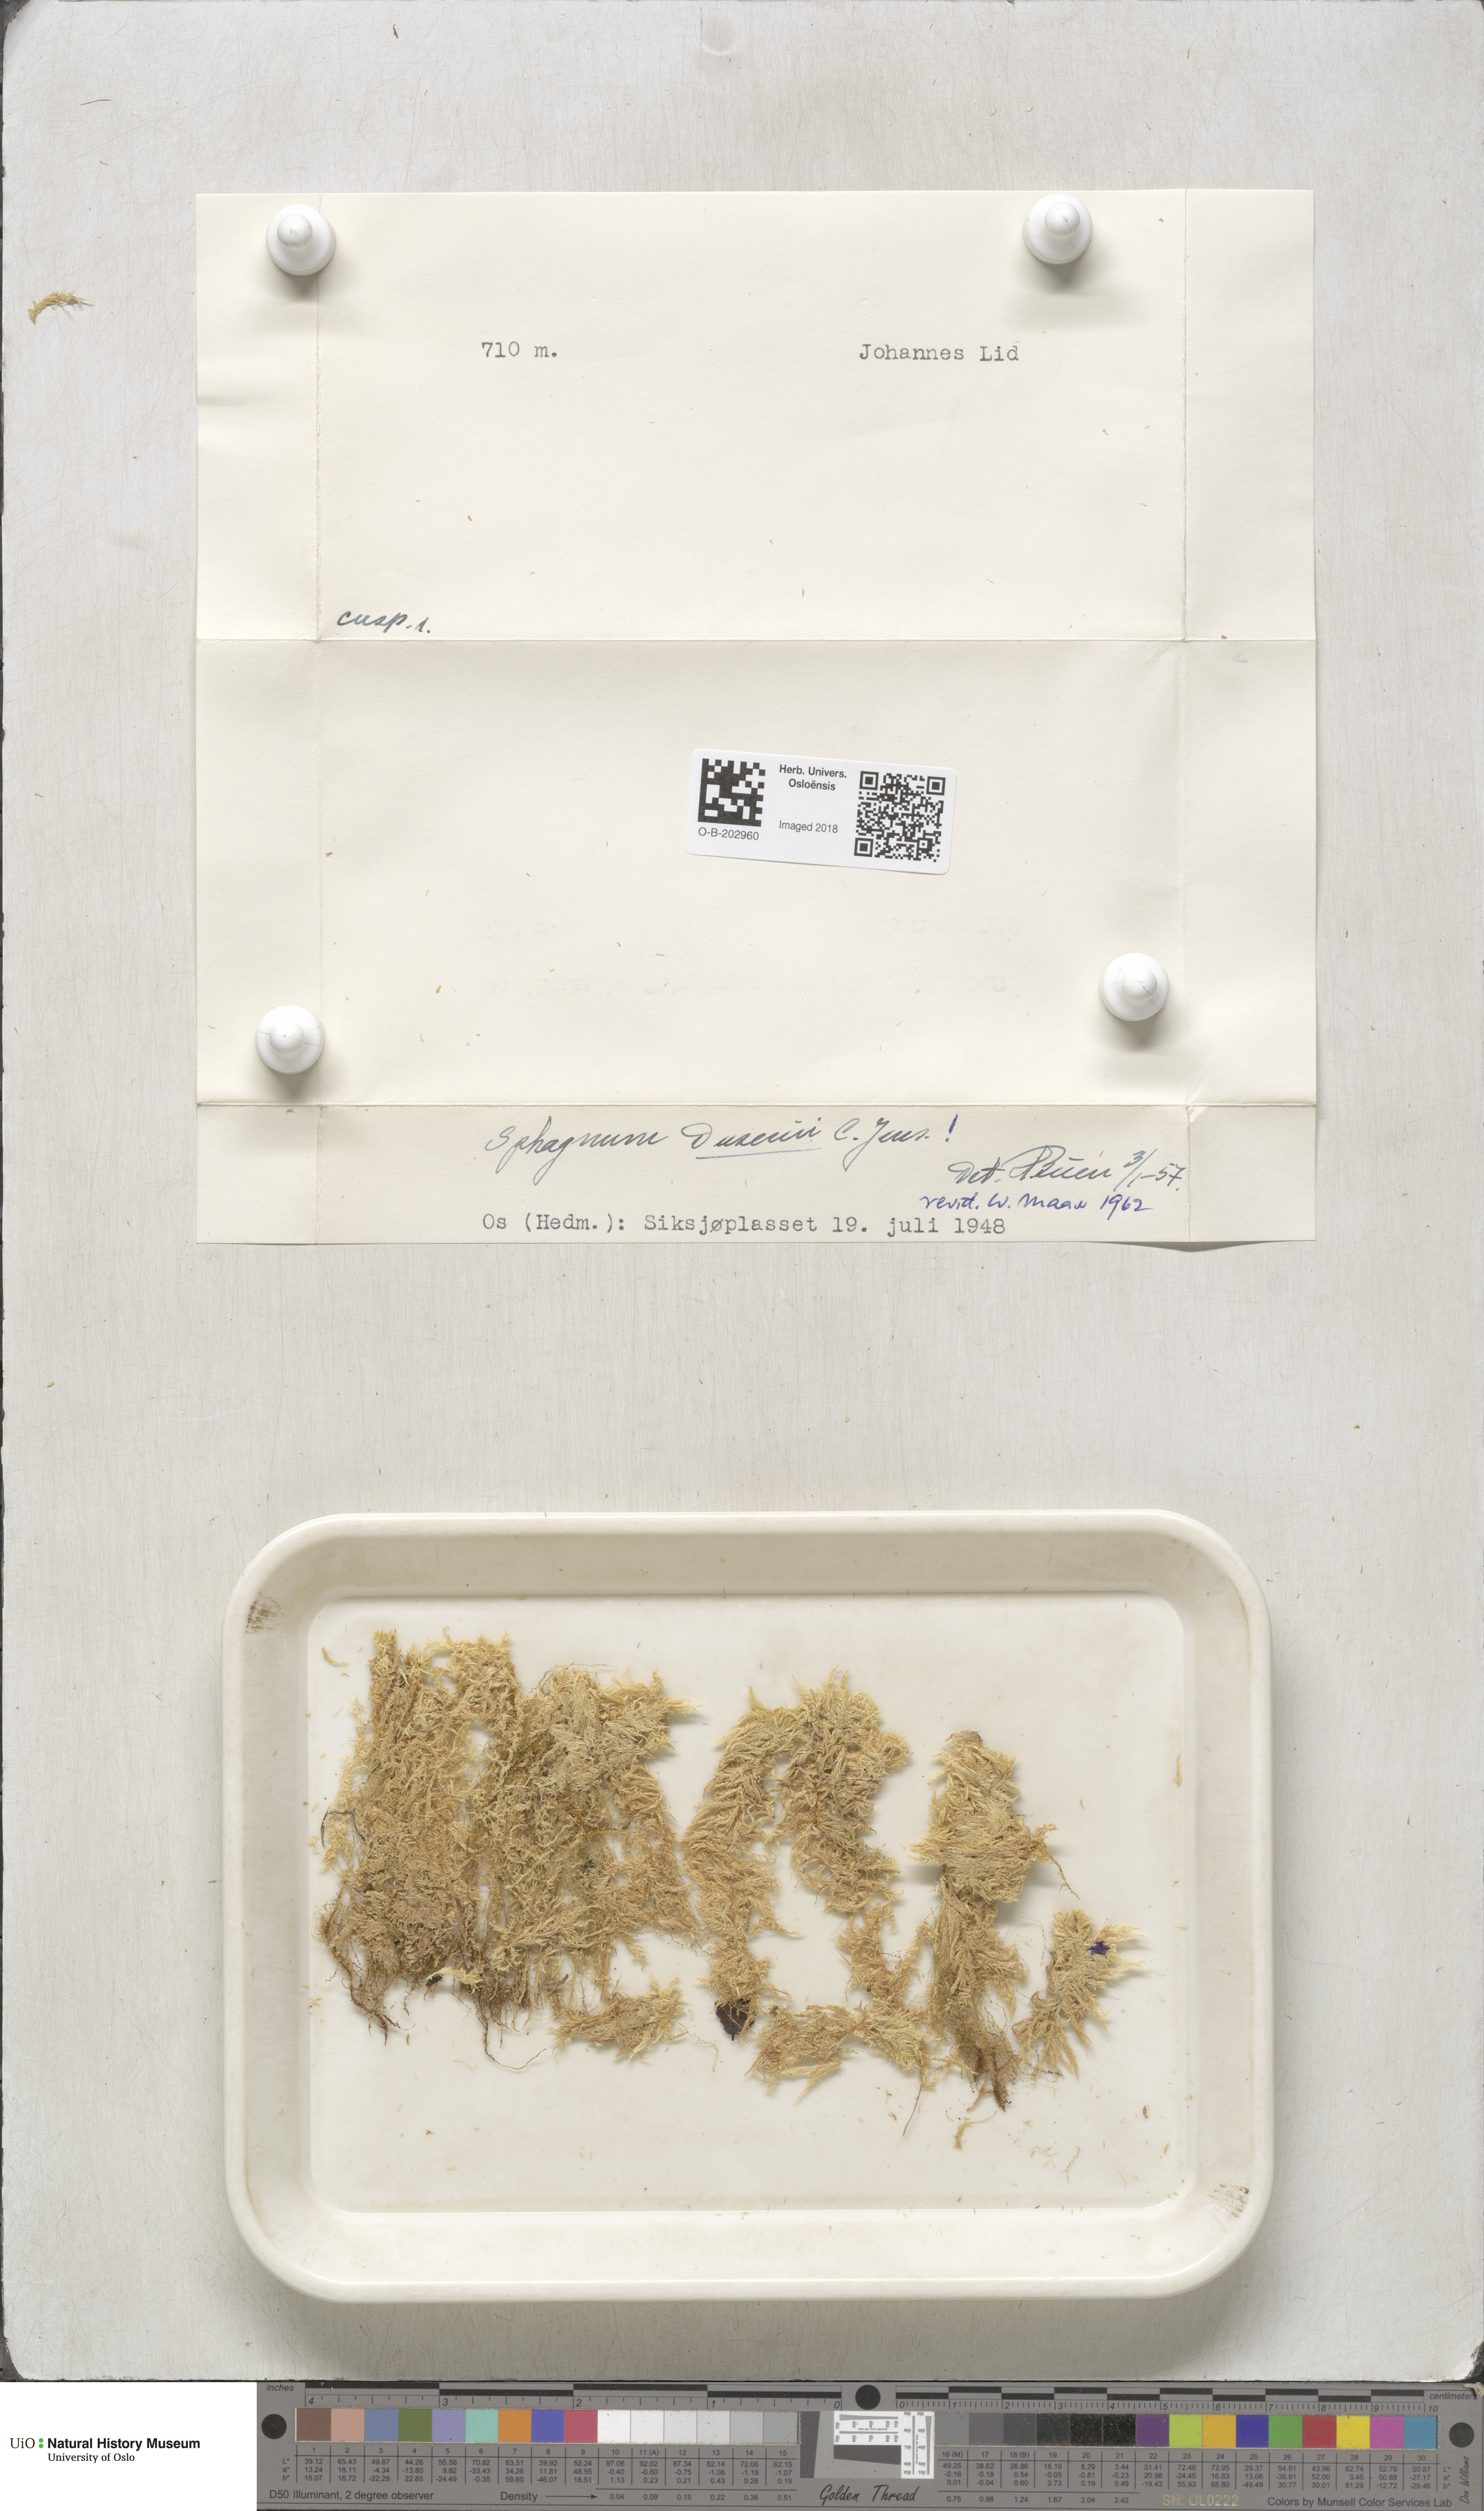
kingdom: Plantae
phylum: Bryophyta
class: Sphagnopsida
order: Sphagnales
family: Sphagnaceae
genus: Sphagnum
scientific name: Sphagnum majus
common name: Olive bog-moss
